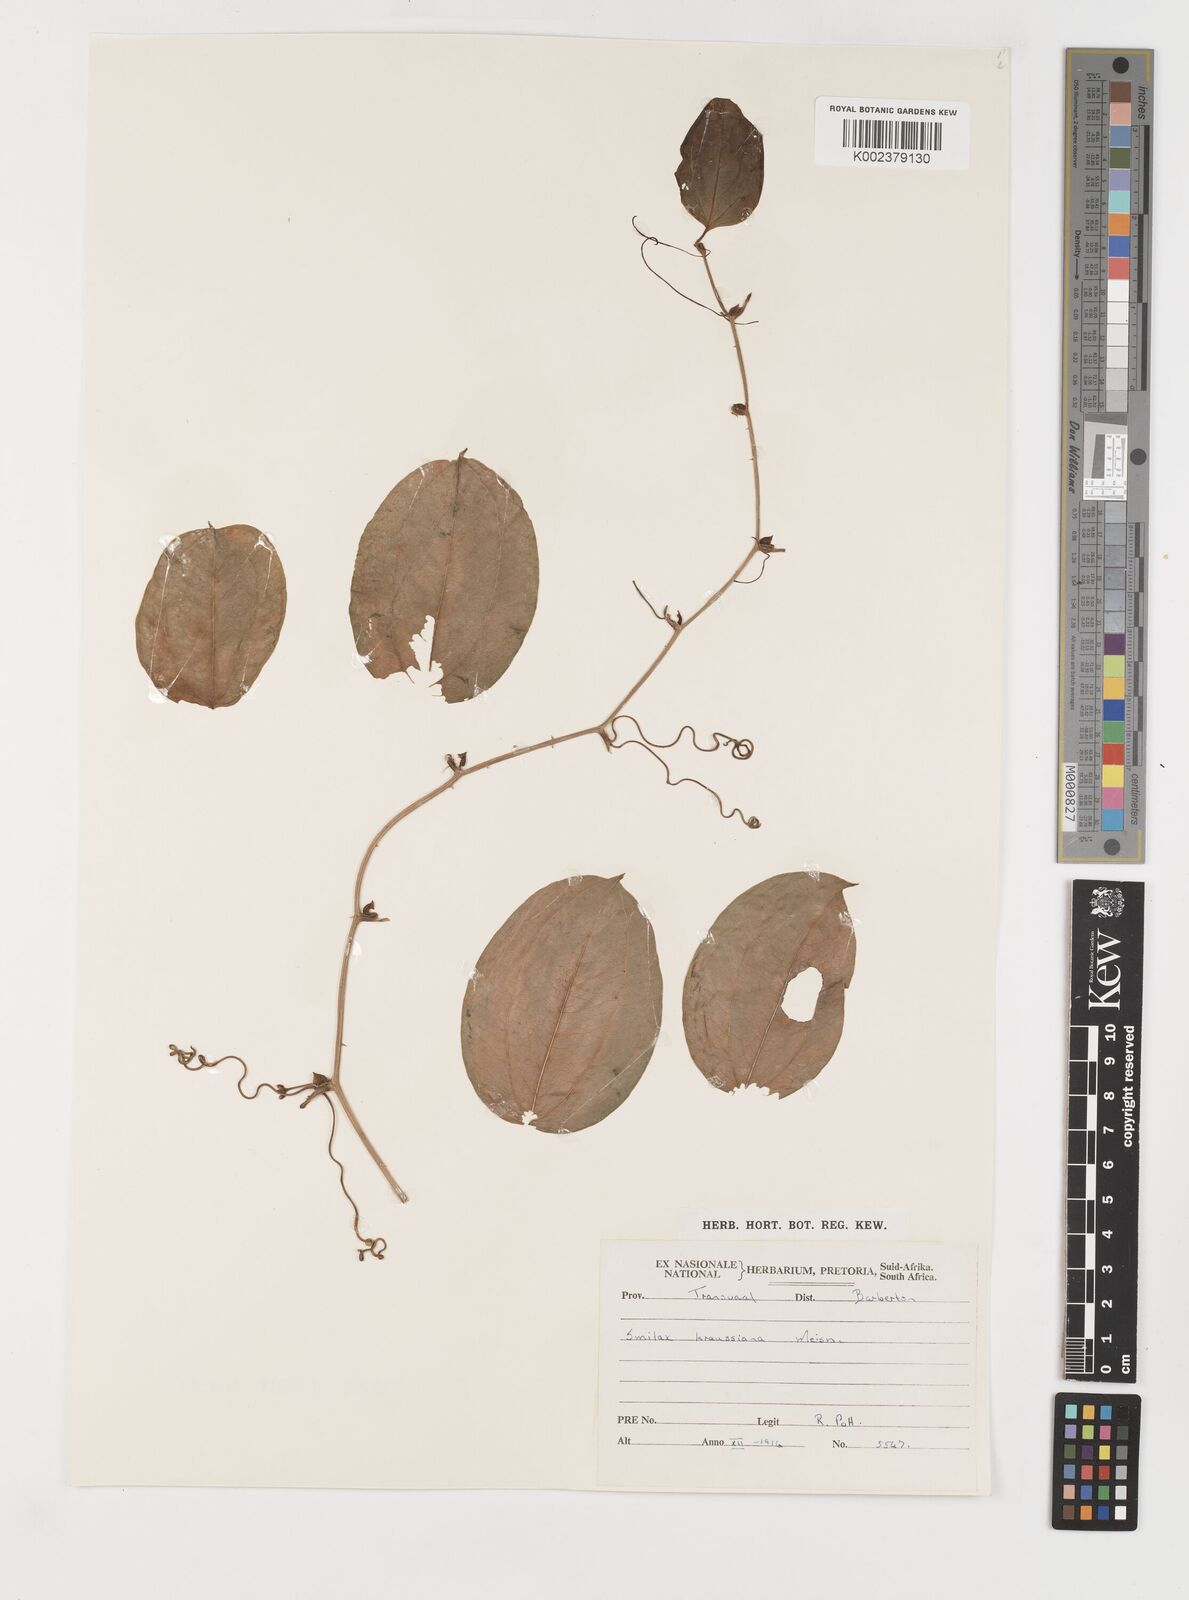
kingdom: Plantae
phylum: Tracheophyta
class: Liliopsida
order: Liliales
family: Smilacaceae
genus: Smilax
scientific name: Smilax anceps
